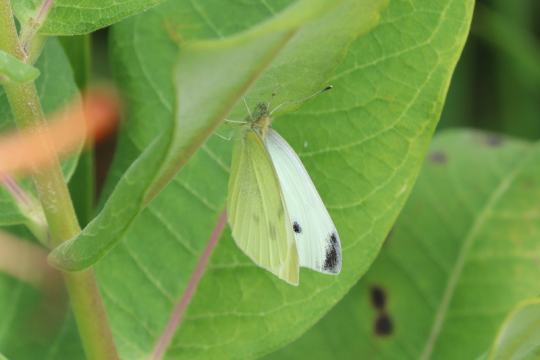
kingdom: Animalia
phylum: Arthropoda
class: Insecta
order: Lepidoptera
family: Pieridae
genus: Pieris
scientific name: Pieris rapae
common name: Cabbage White
